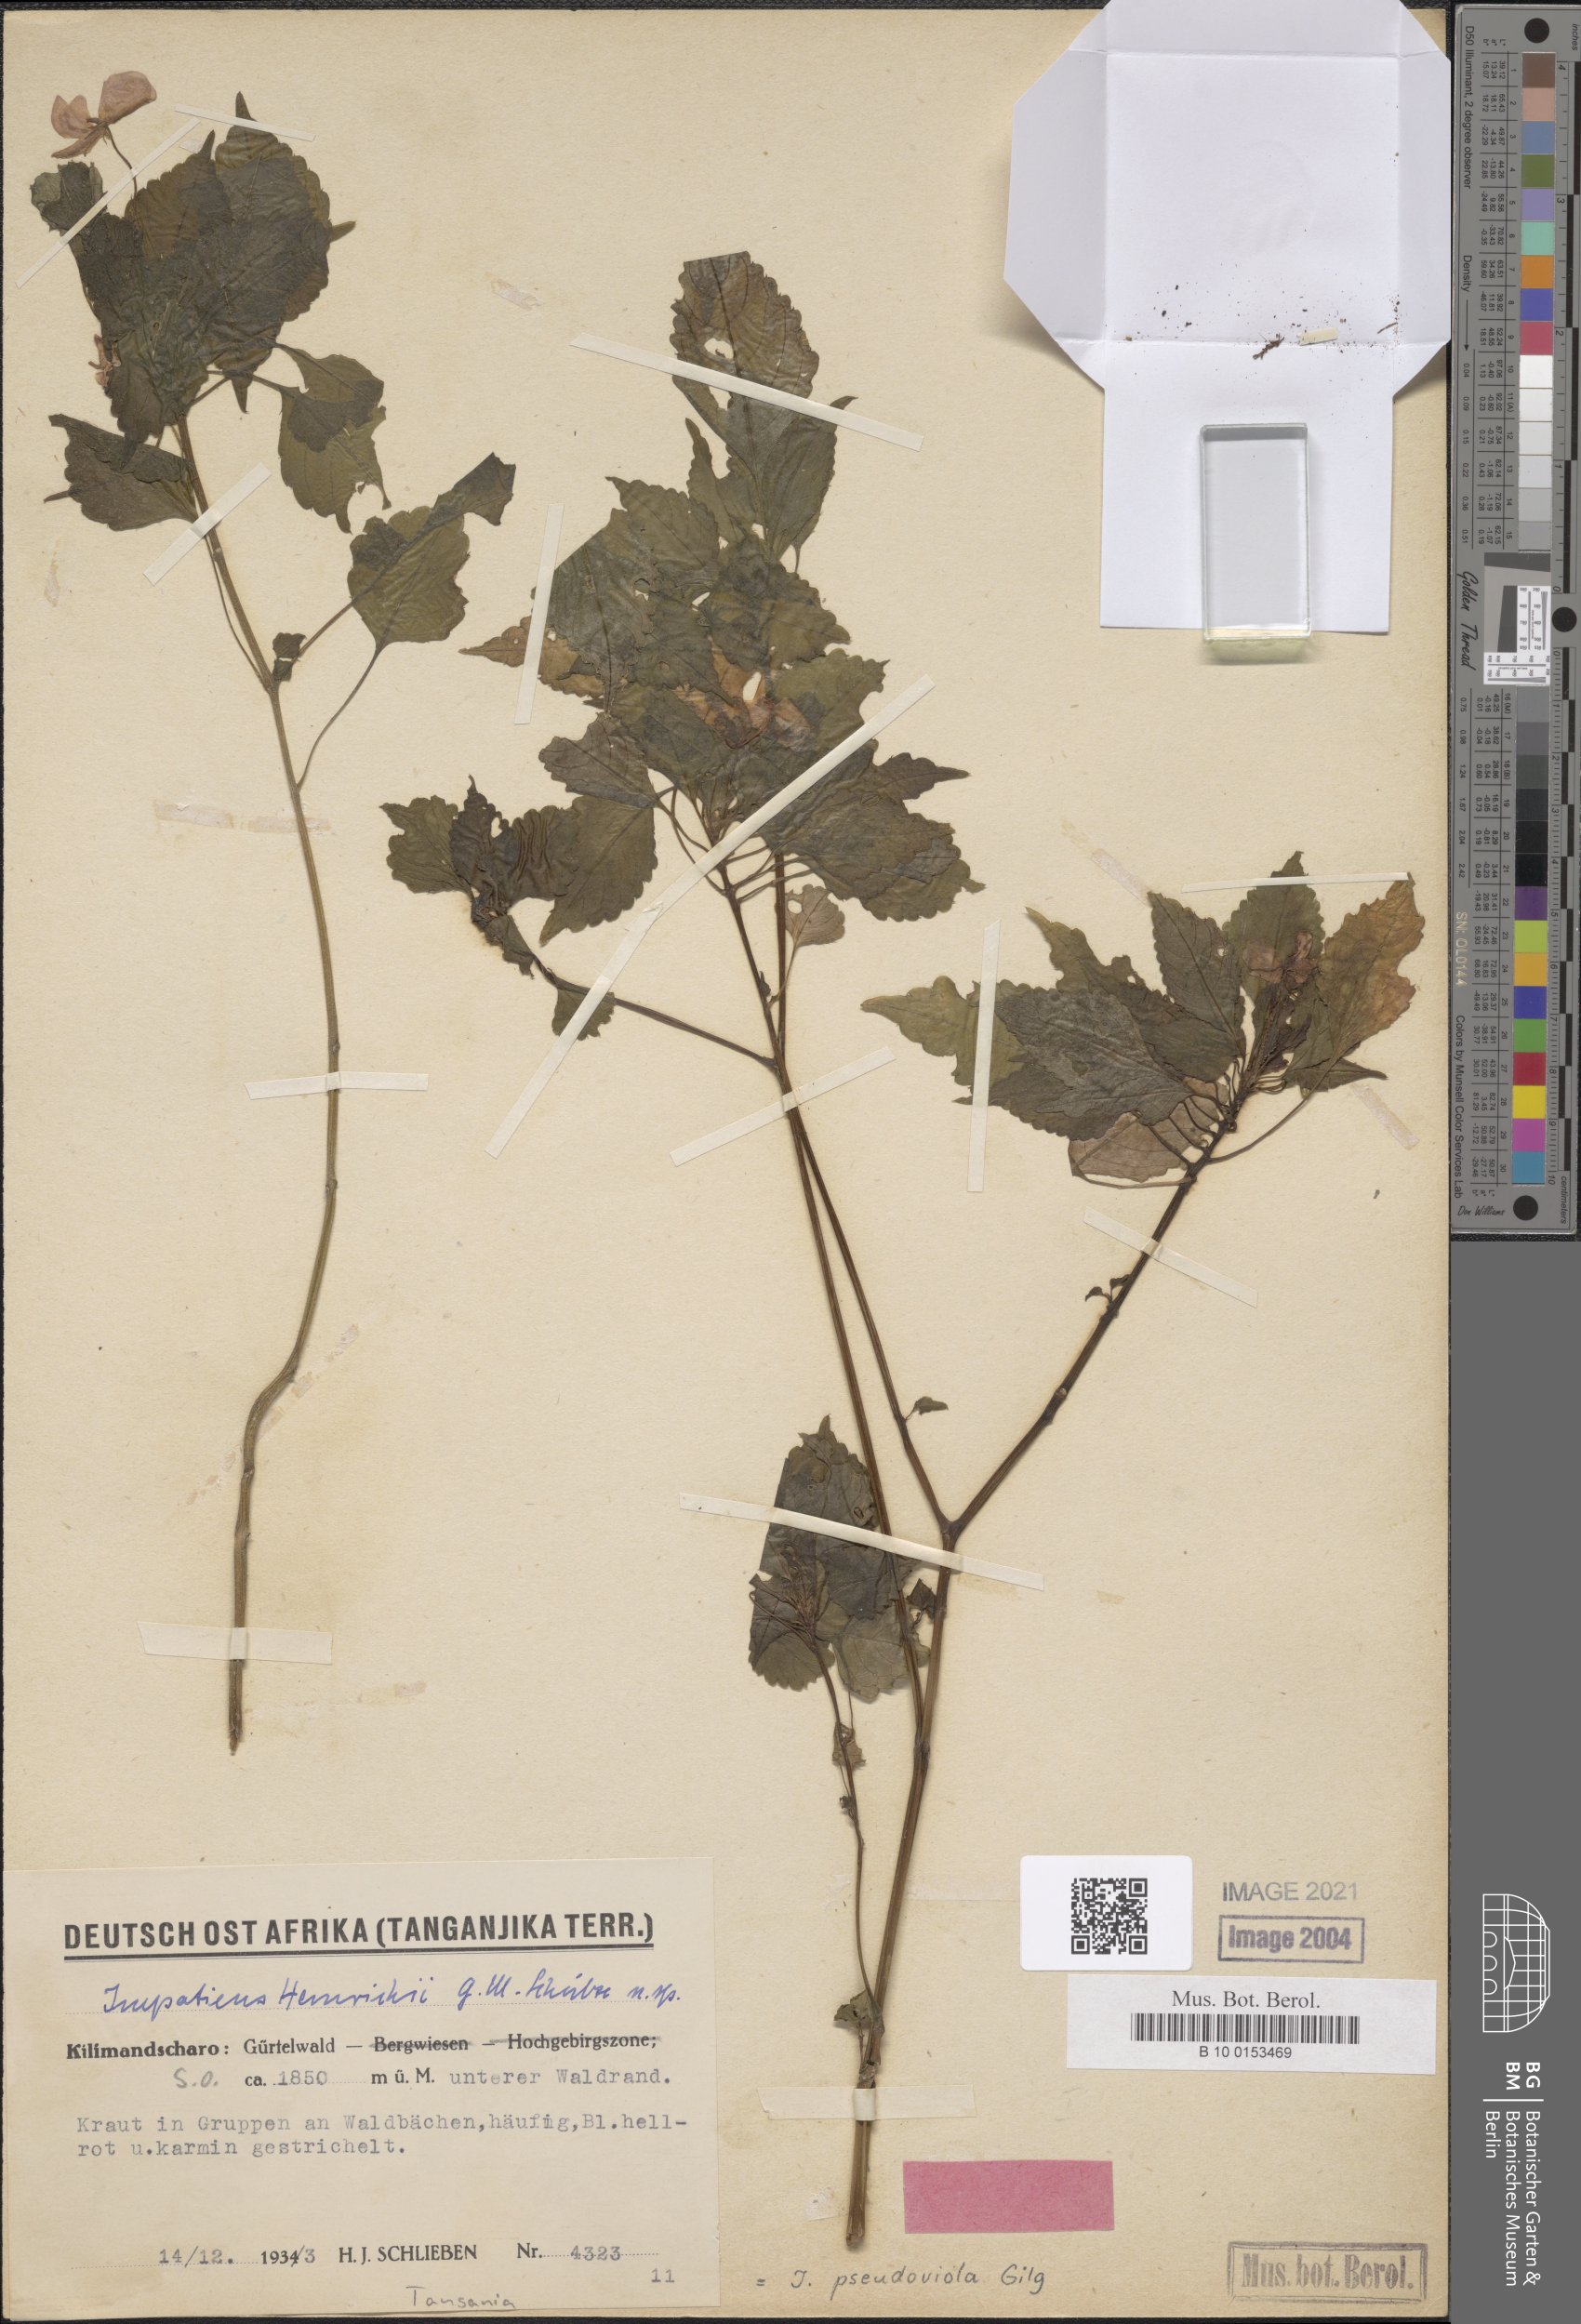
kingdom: Plantae
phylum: Tracheophyta
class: Magnoliopsida
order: Ericales
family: Balsaminaceae
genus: Impatiens
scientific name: Impatiens pseudoviola
